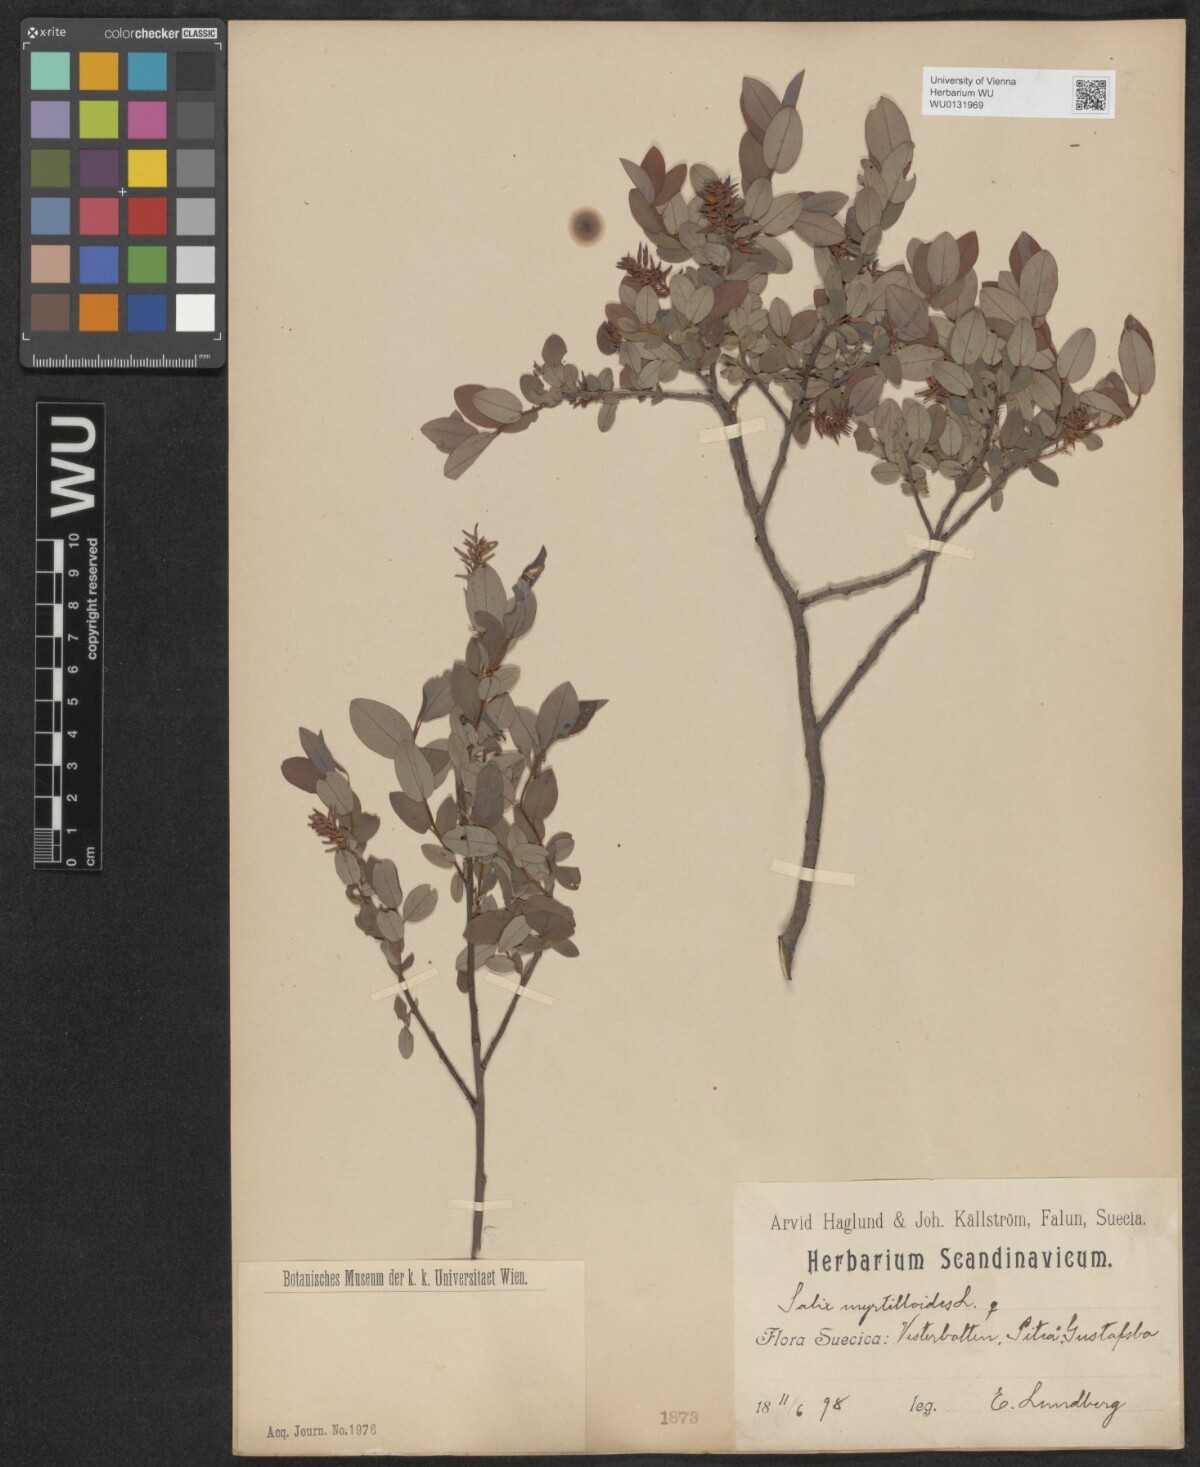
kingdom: Plantae
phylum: Tracheophyta
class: Magnoliopsida
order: Malpighiales
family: Salicaceae
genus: Salix
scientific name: Salix myrtilloides
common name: Myrtle-leaved willow
